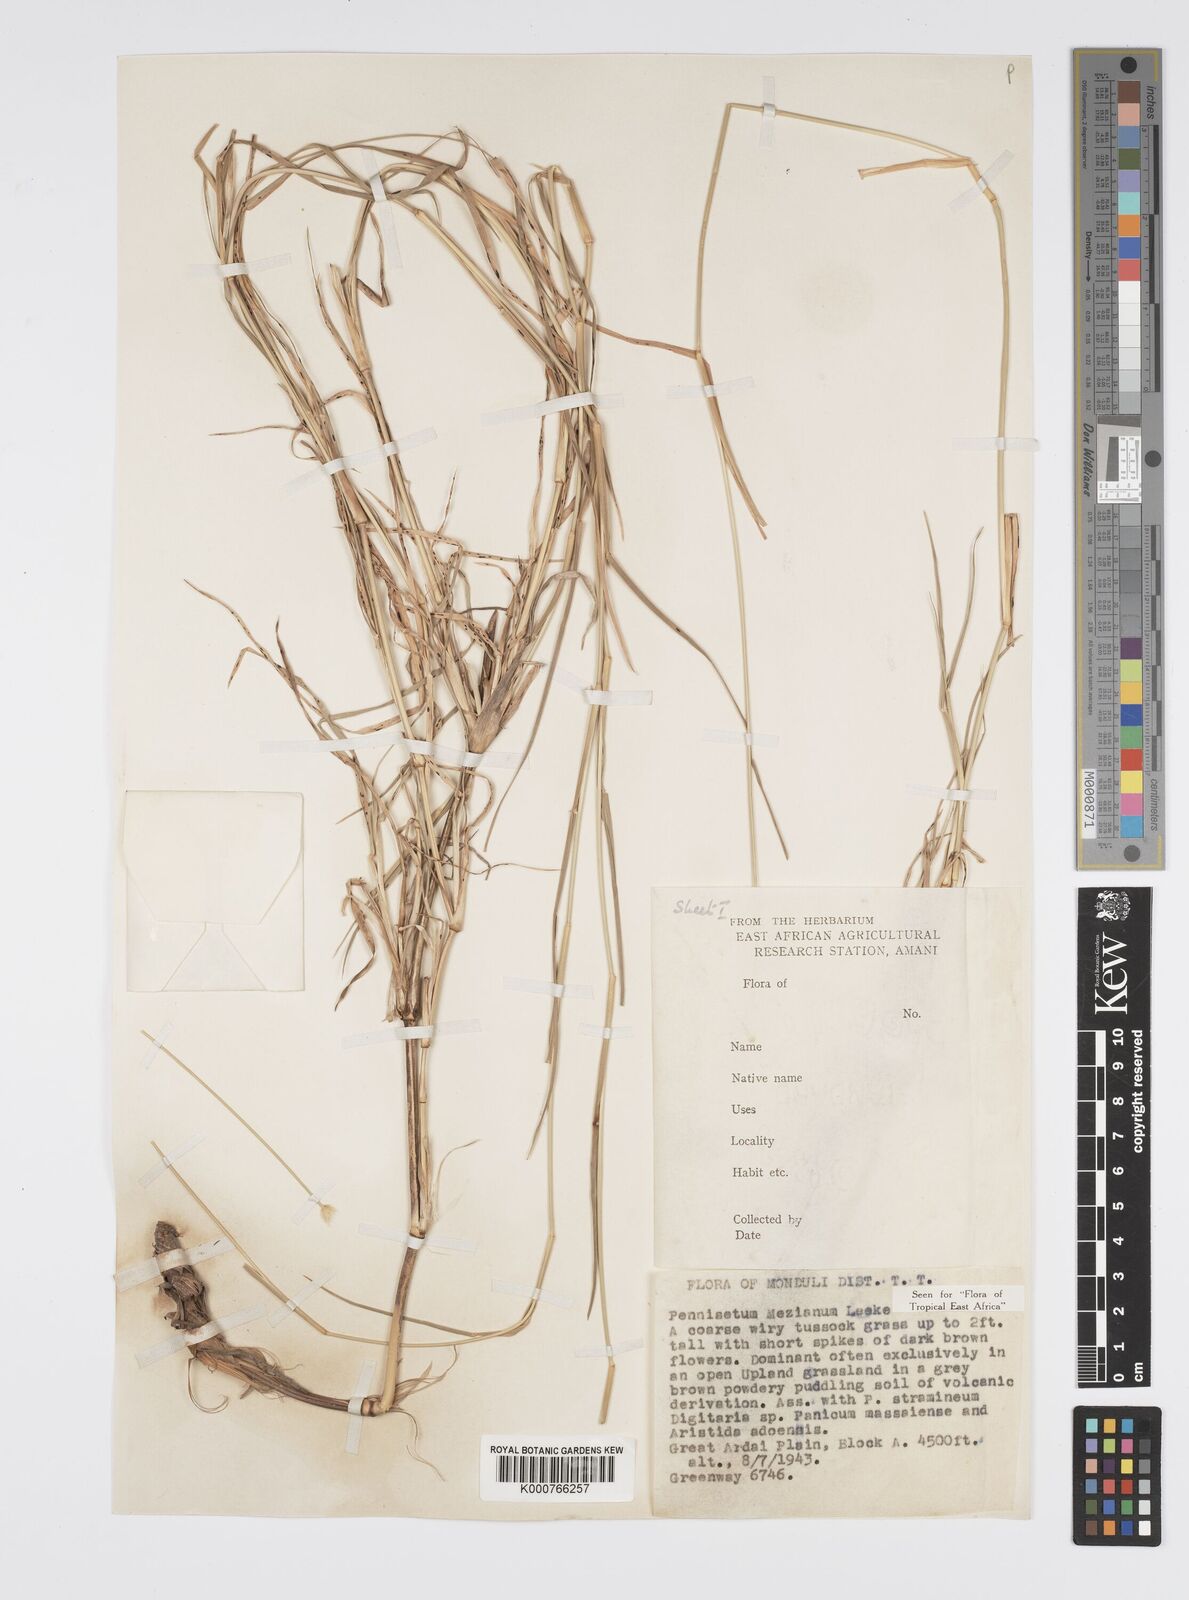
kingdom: Plantae
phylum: Tracheophyta
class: Liliopsida
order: Poales
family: Poaceae
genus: Cenchrus
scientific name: Cenchrus mezianus
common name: Bamboo grass
